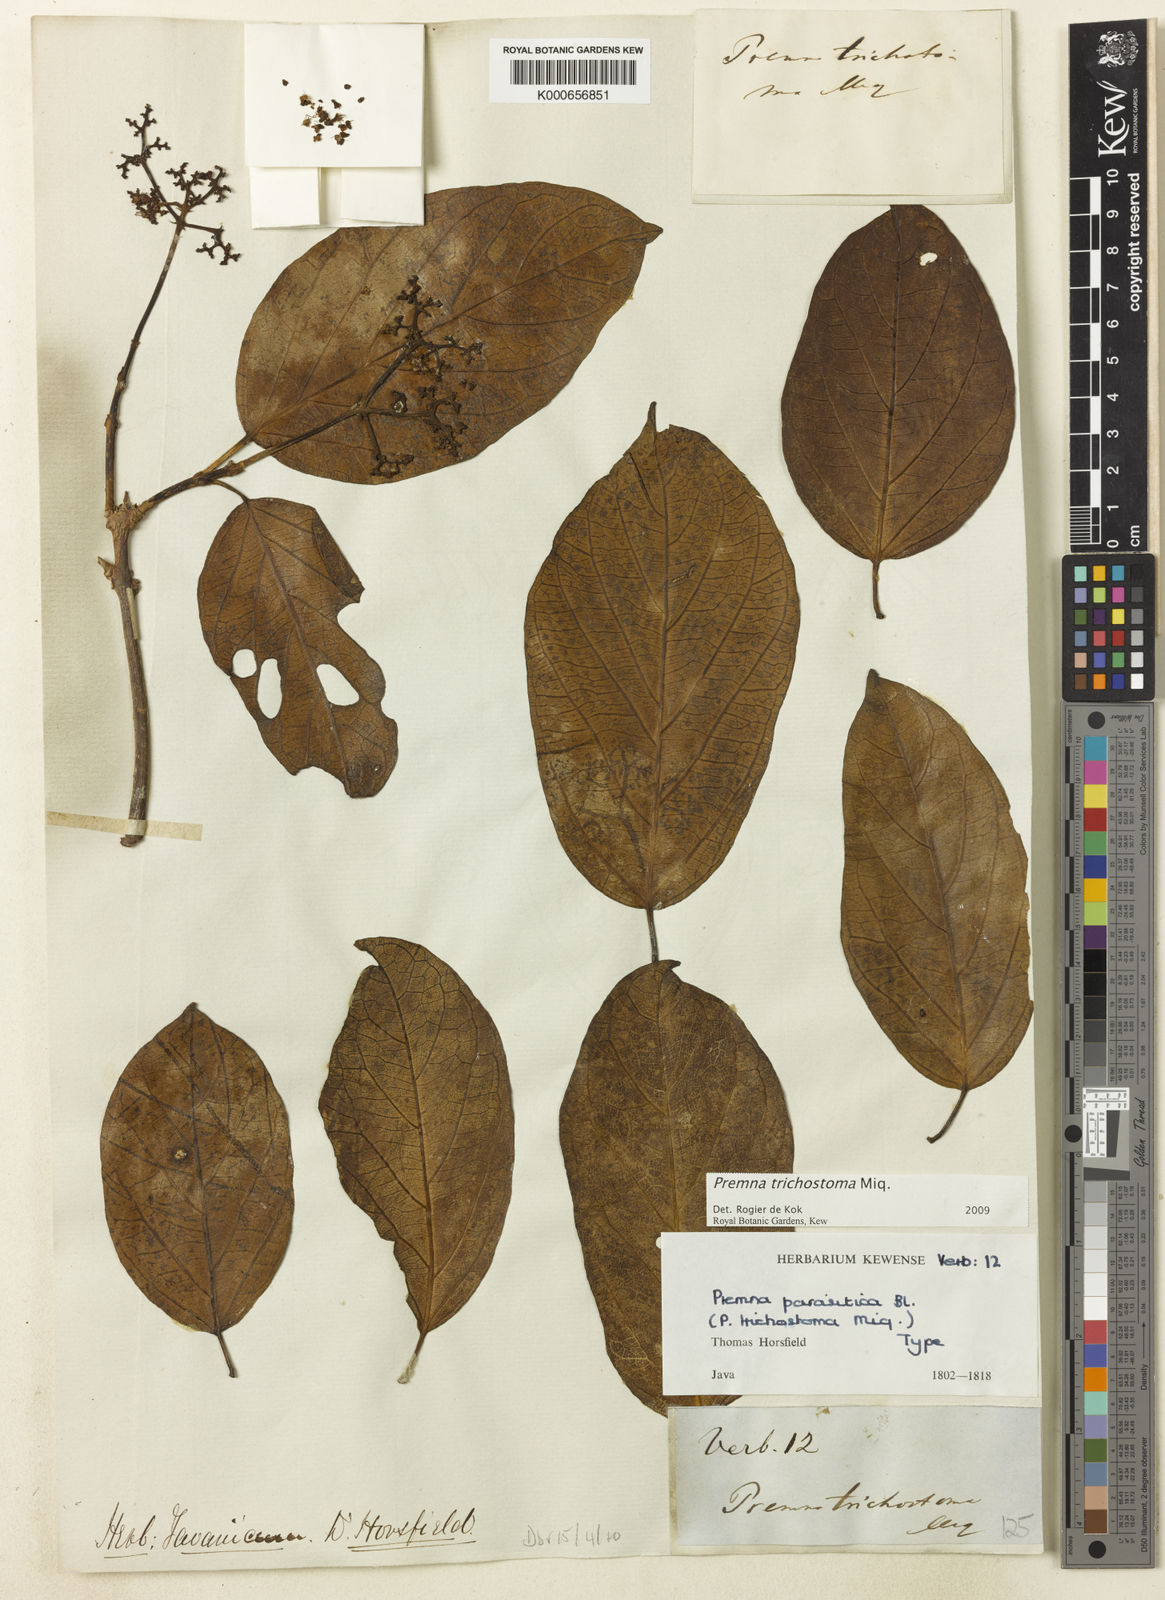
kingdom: Plantae
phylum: Tracheophyta
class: Magnoliopsida
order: Lamiales
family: Lamiaceae
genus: Premna
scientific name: Premna trichostoma
